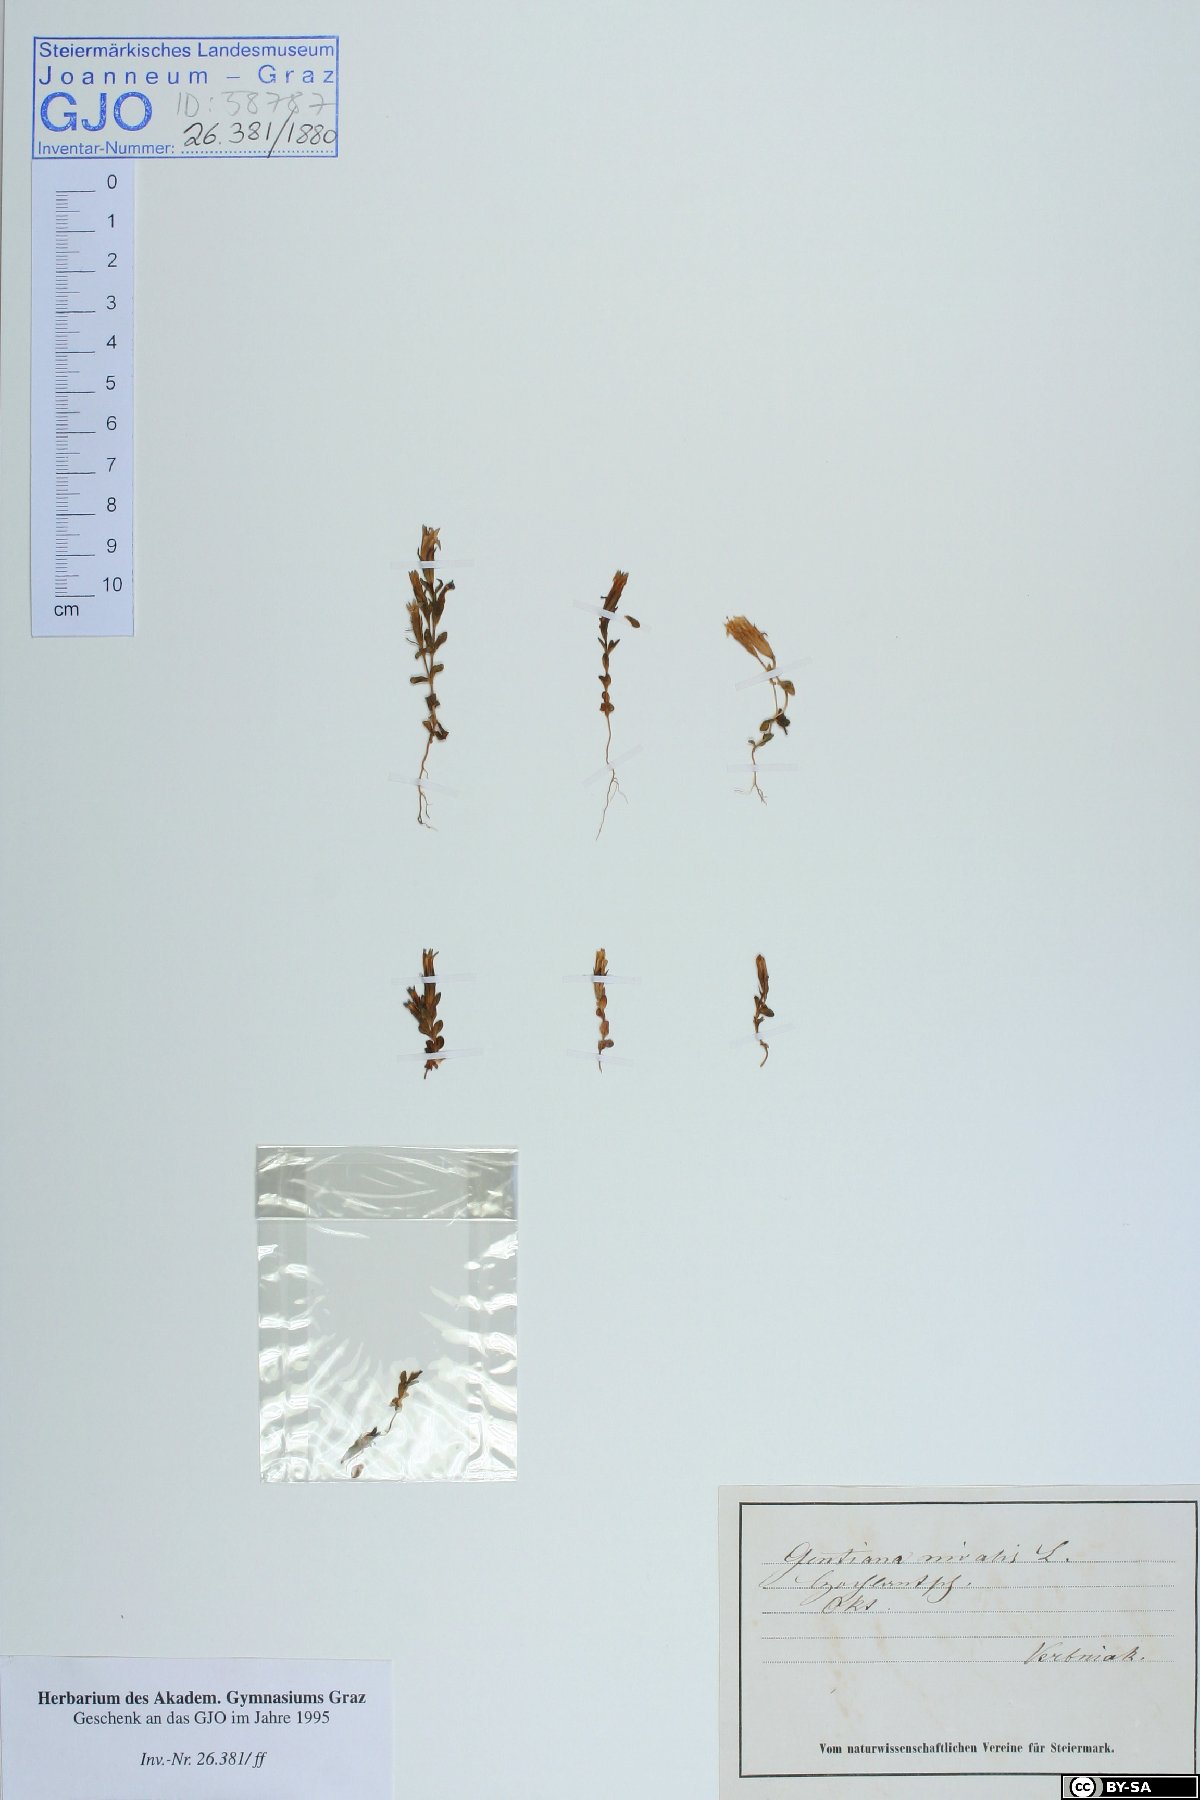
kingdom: Plantae
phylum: Tracheophyta
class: Magnoliopsida
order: Gentianales
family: Gentianaceae
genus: Gentiana
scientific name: Gentiana nivalis
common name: Alpine gentian
